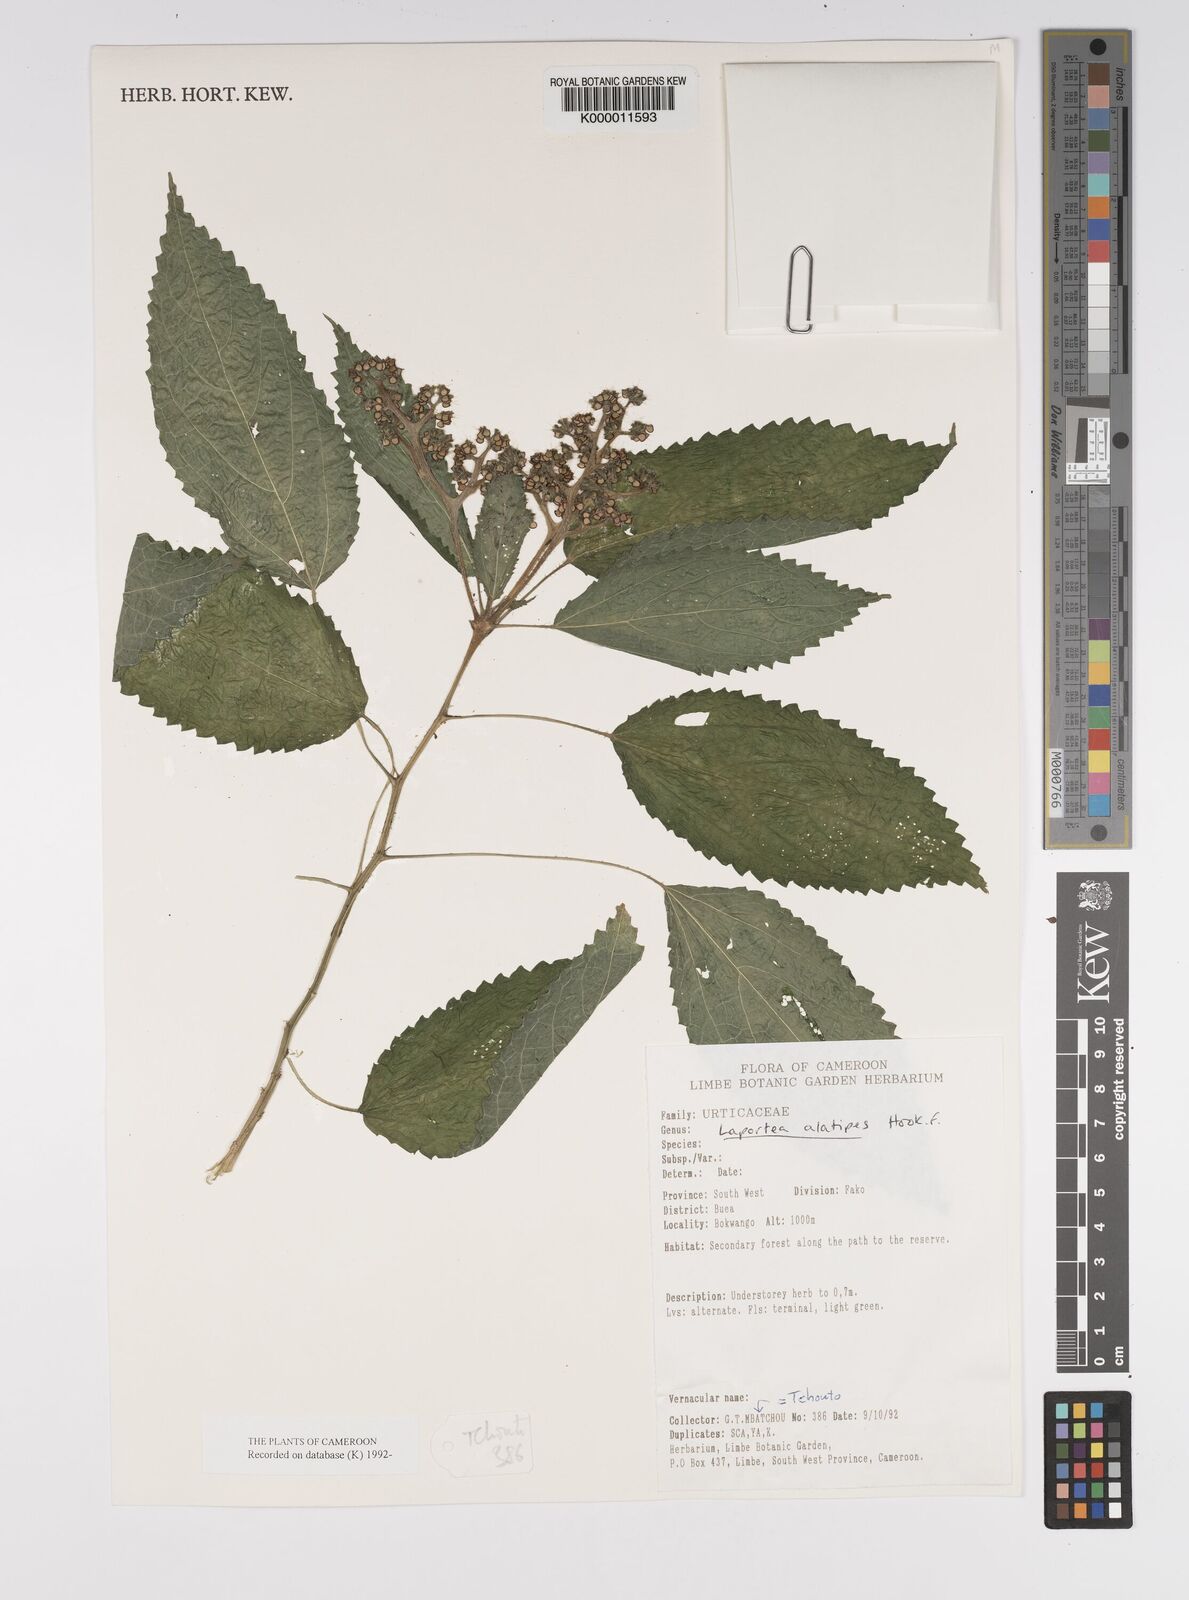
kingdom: Plantae
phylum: Tracheophyta
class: Magnoliopsida
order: Rosales
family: Urticaceae
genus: Laportea
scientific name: Laportea alatipes
